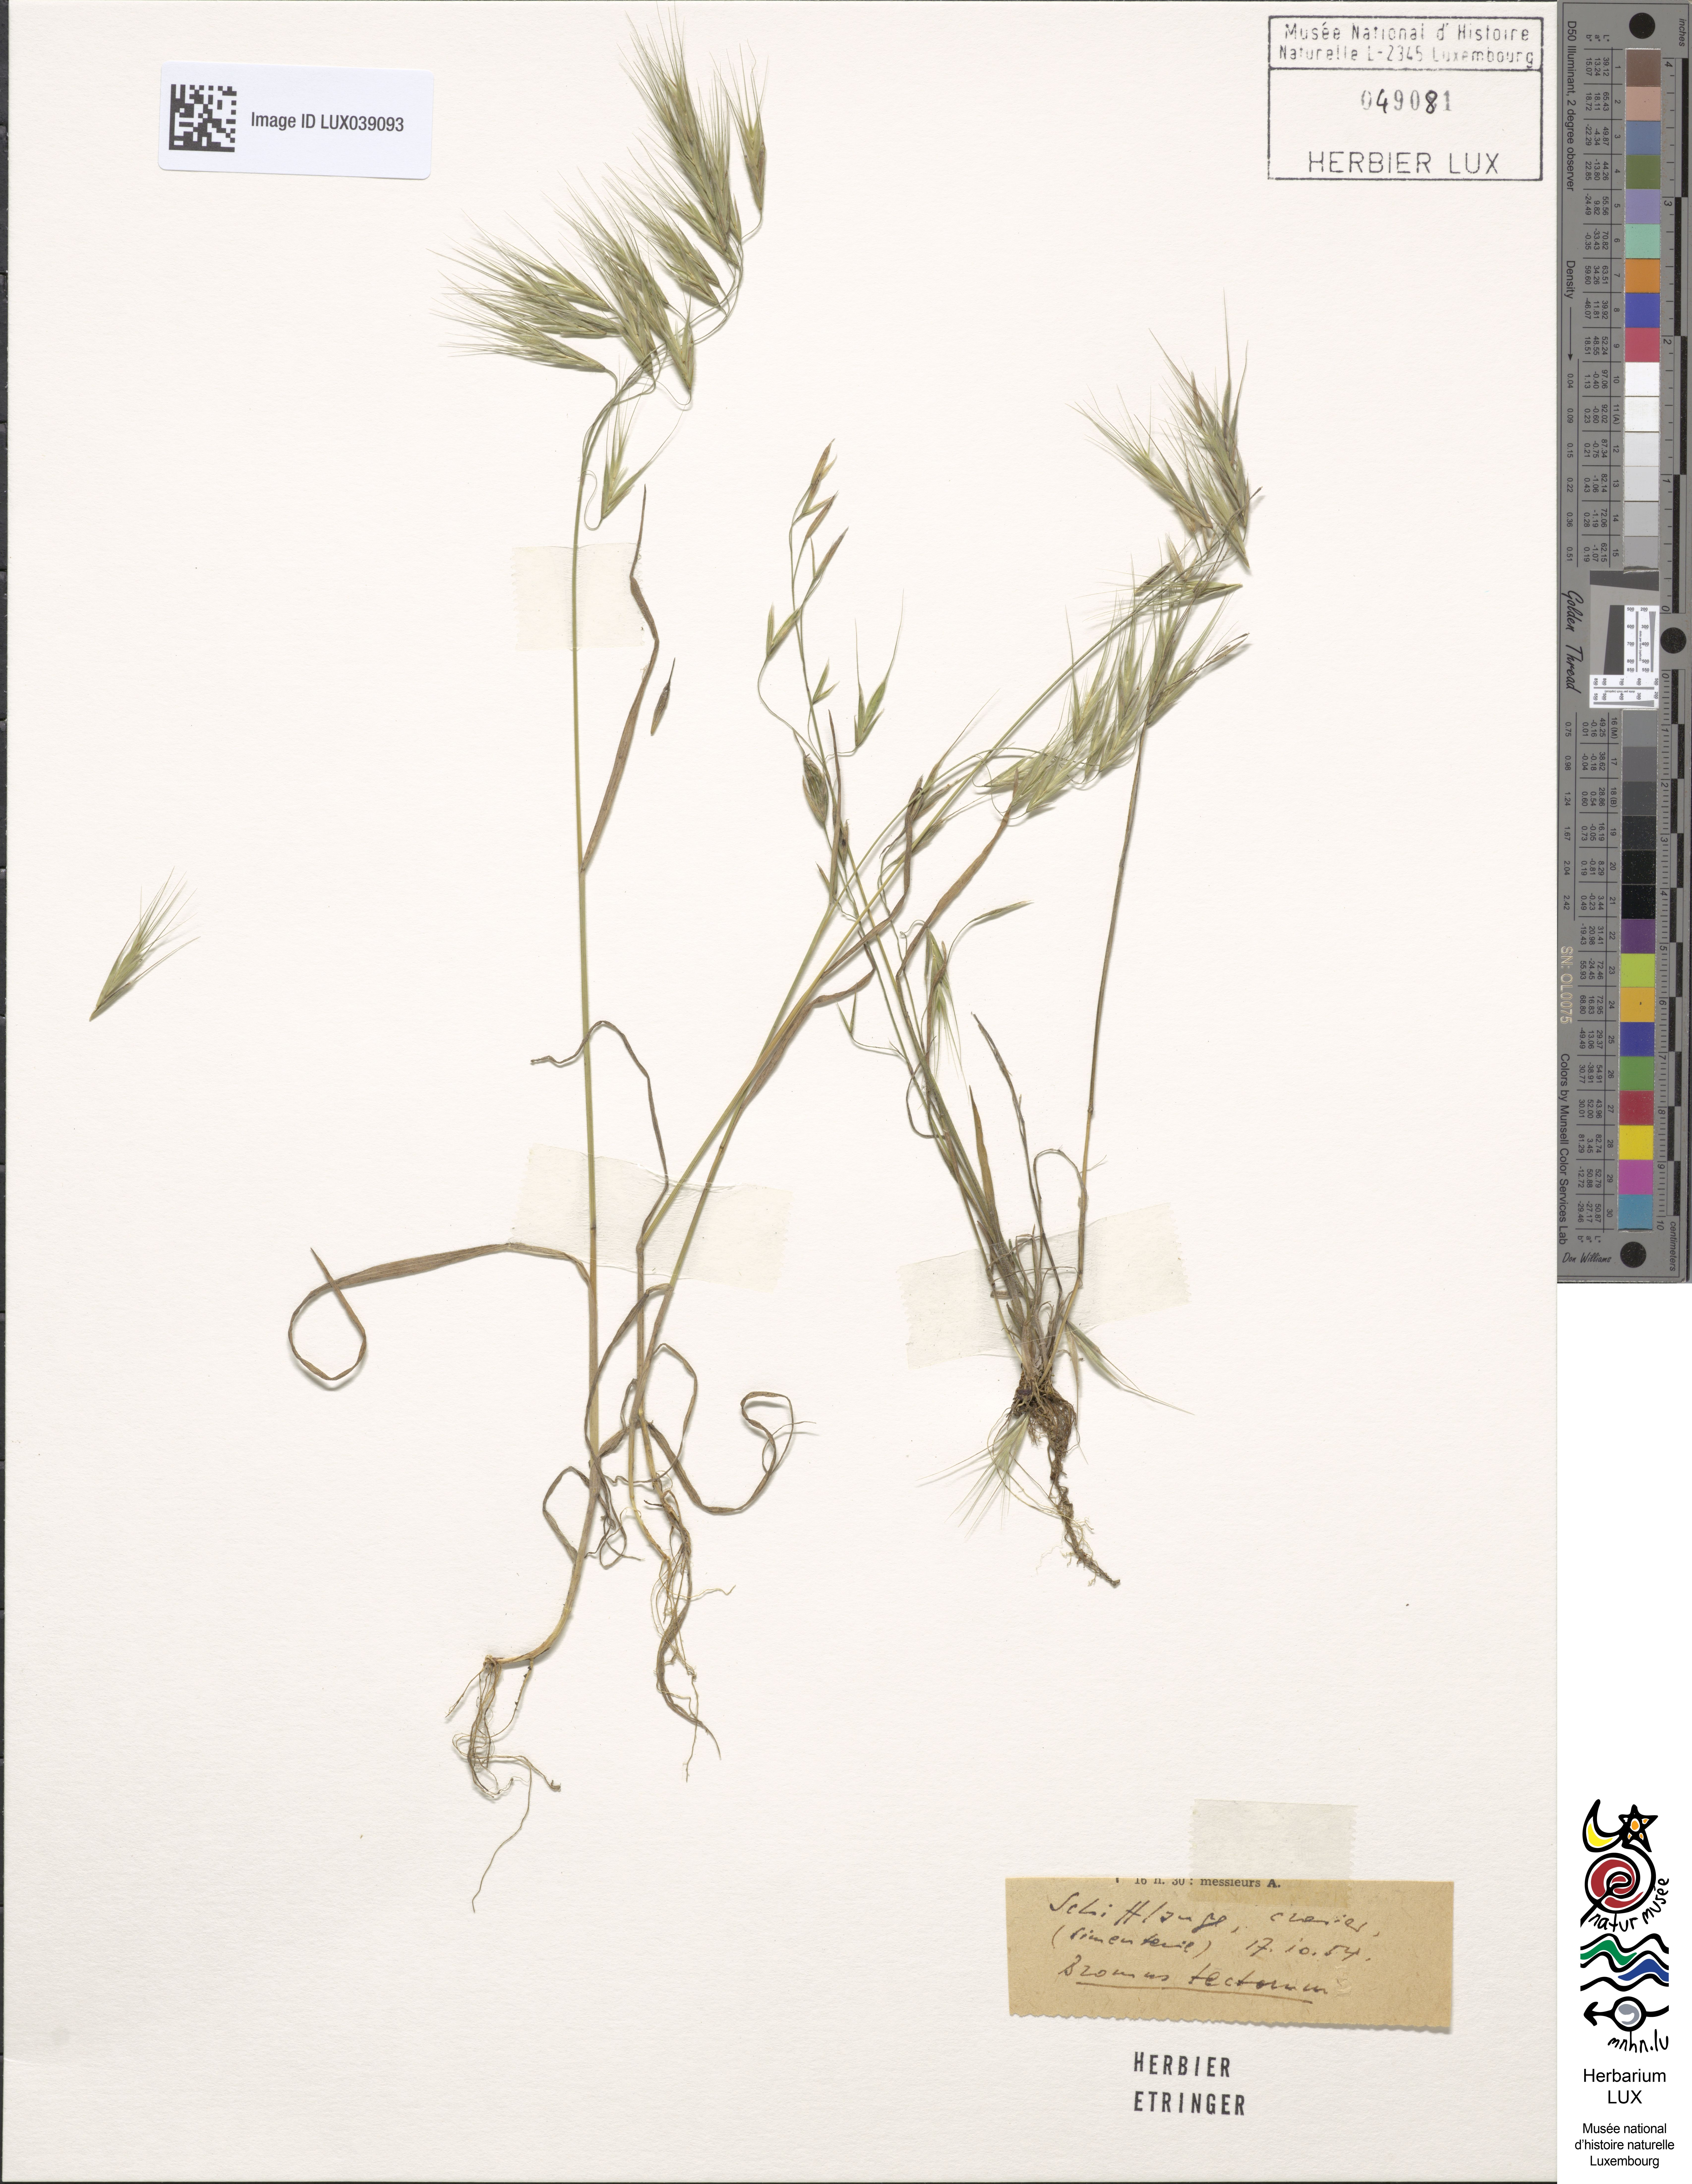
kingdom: Plantae
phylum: Tracheophyta
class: Liliopsida
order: Poales
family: Poaceae
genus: Bromus
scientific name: Bromus tectorum
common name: Cheatgrass
